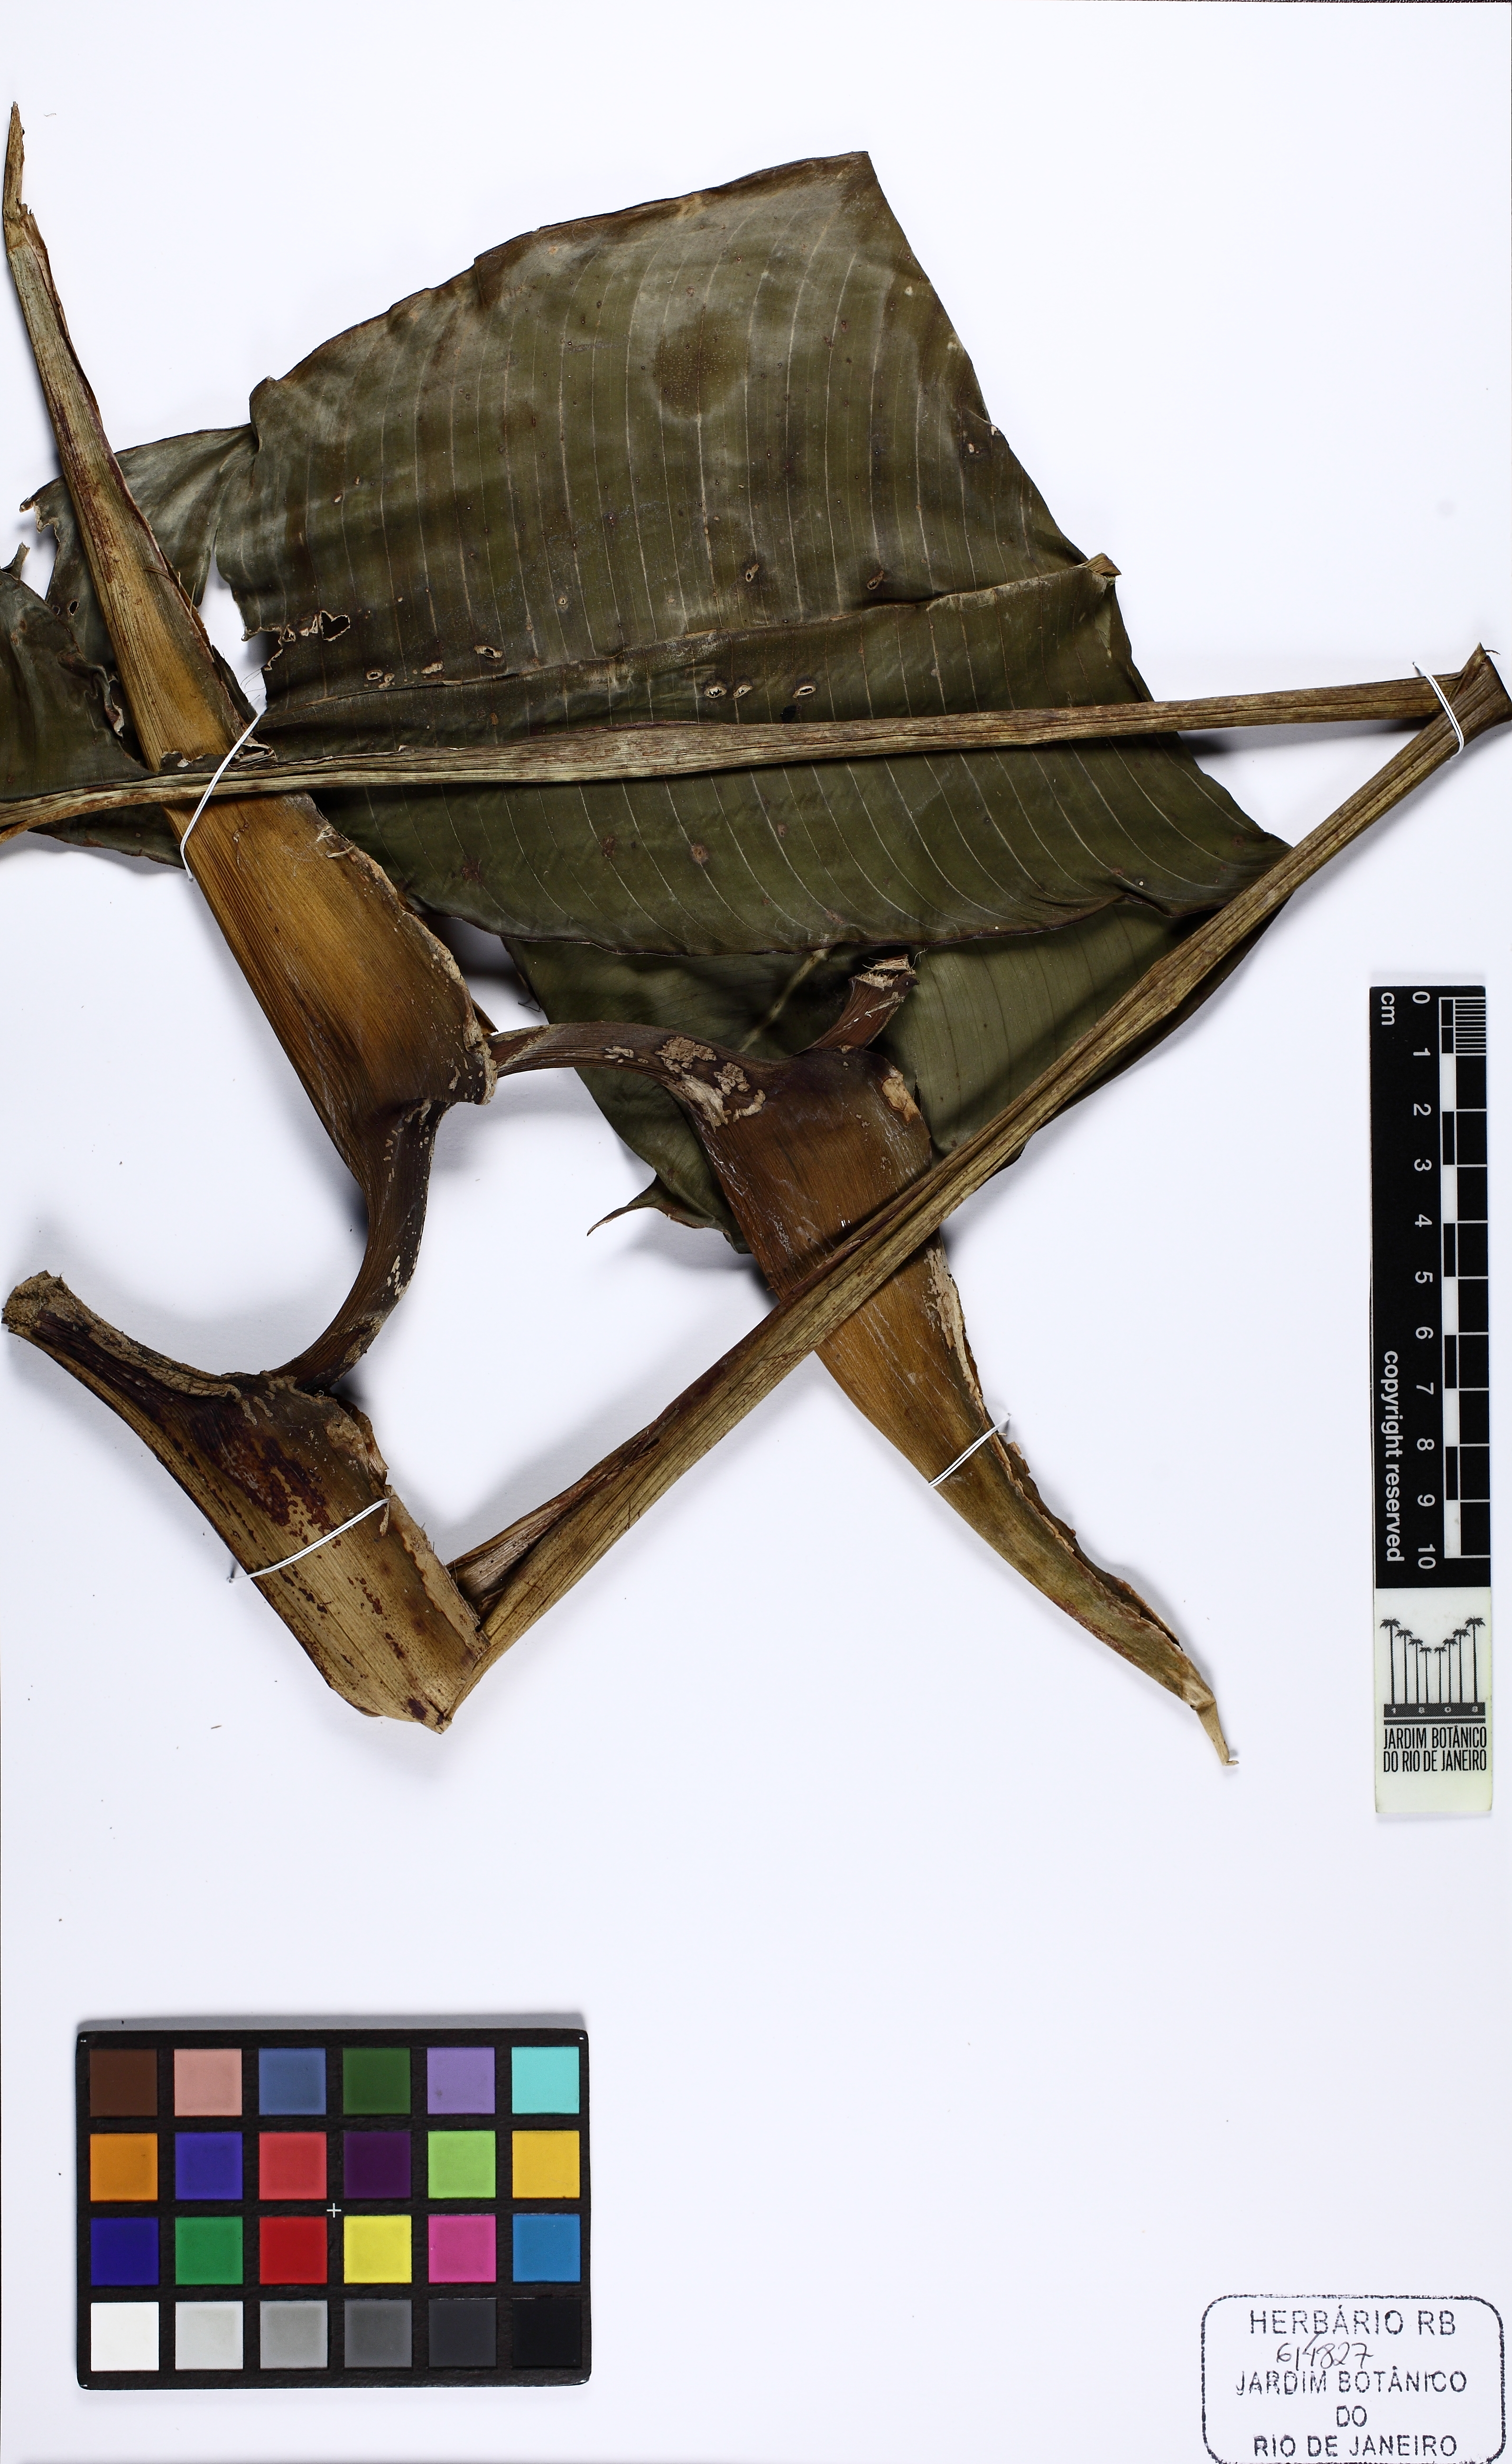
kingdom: Plantae
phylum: Tracheophyta
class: Liliopsida
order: Zingiberales
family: Heliconiaceae
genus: Heliconia
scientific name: Heliconia
